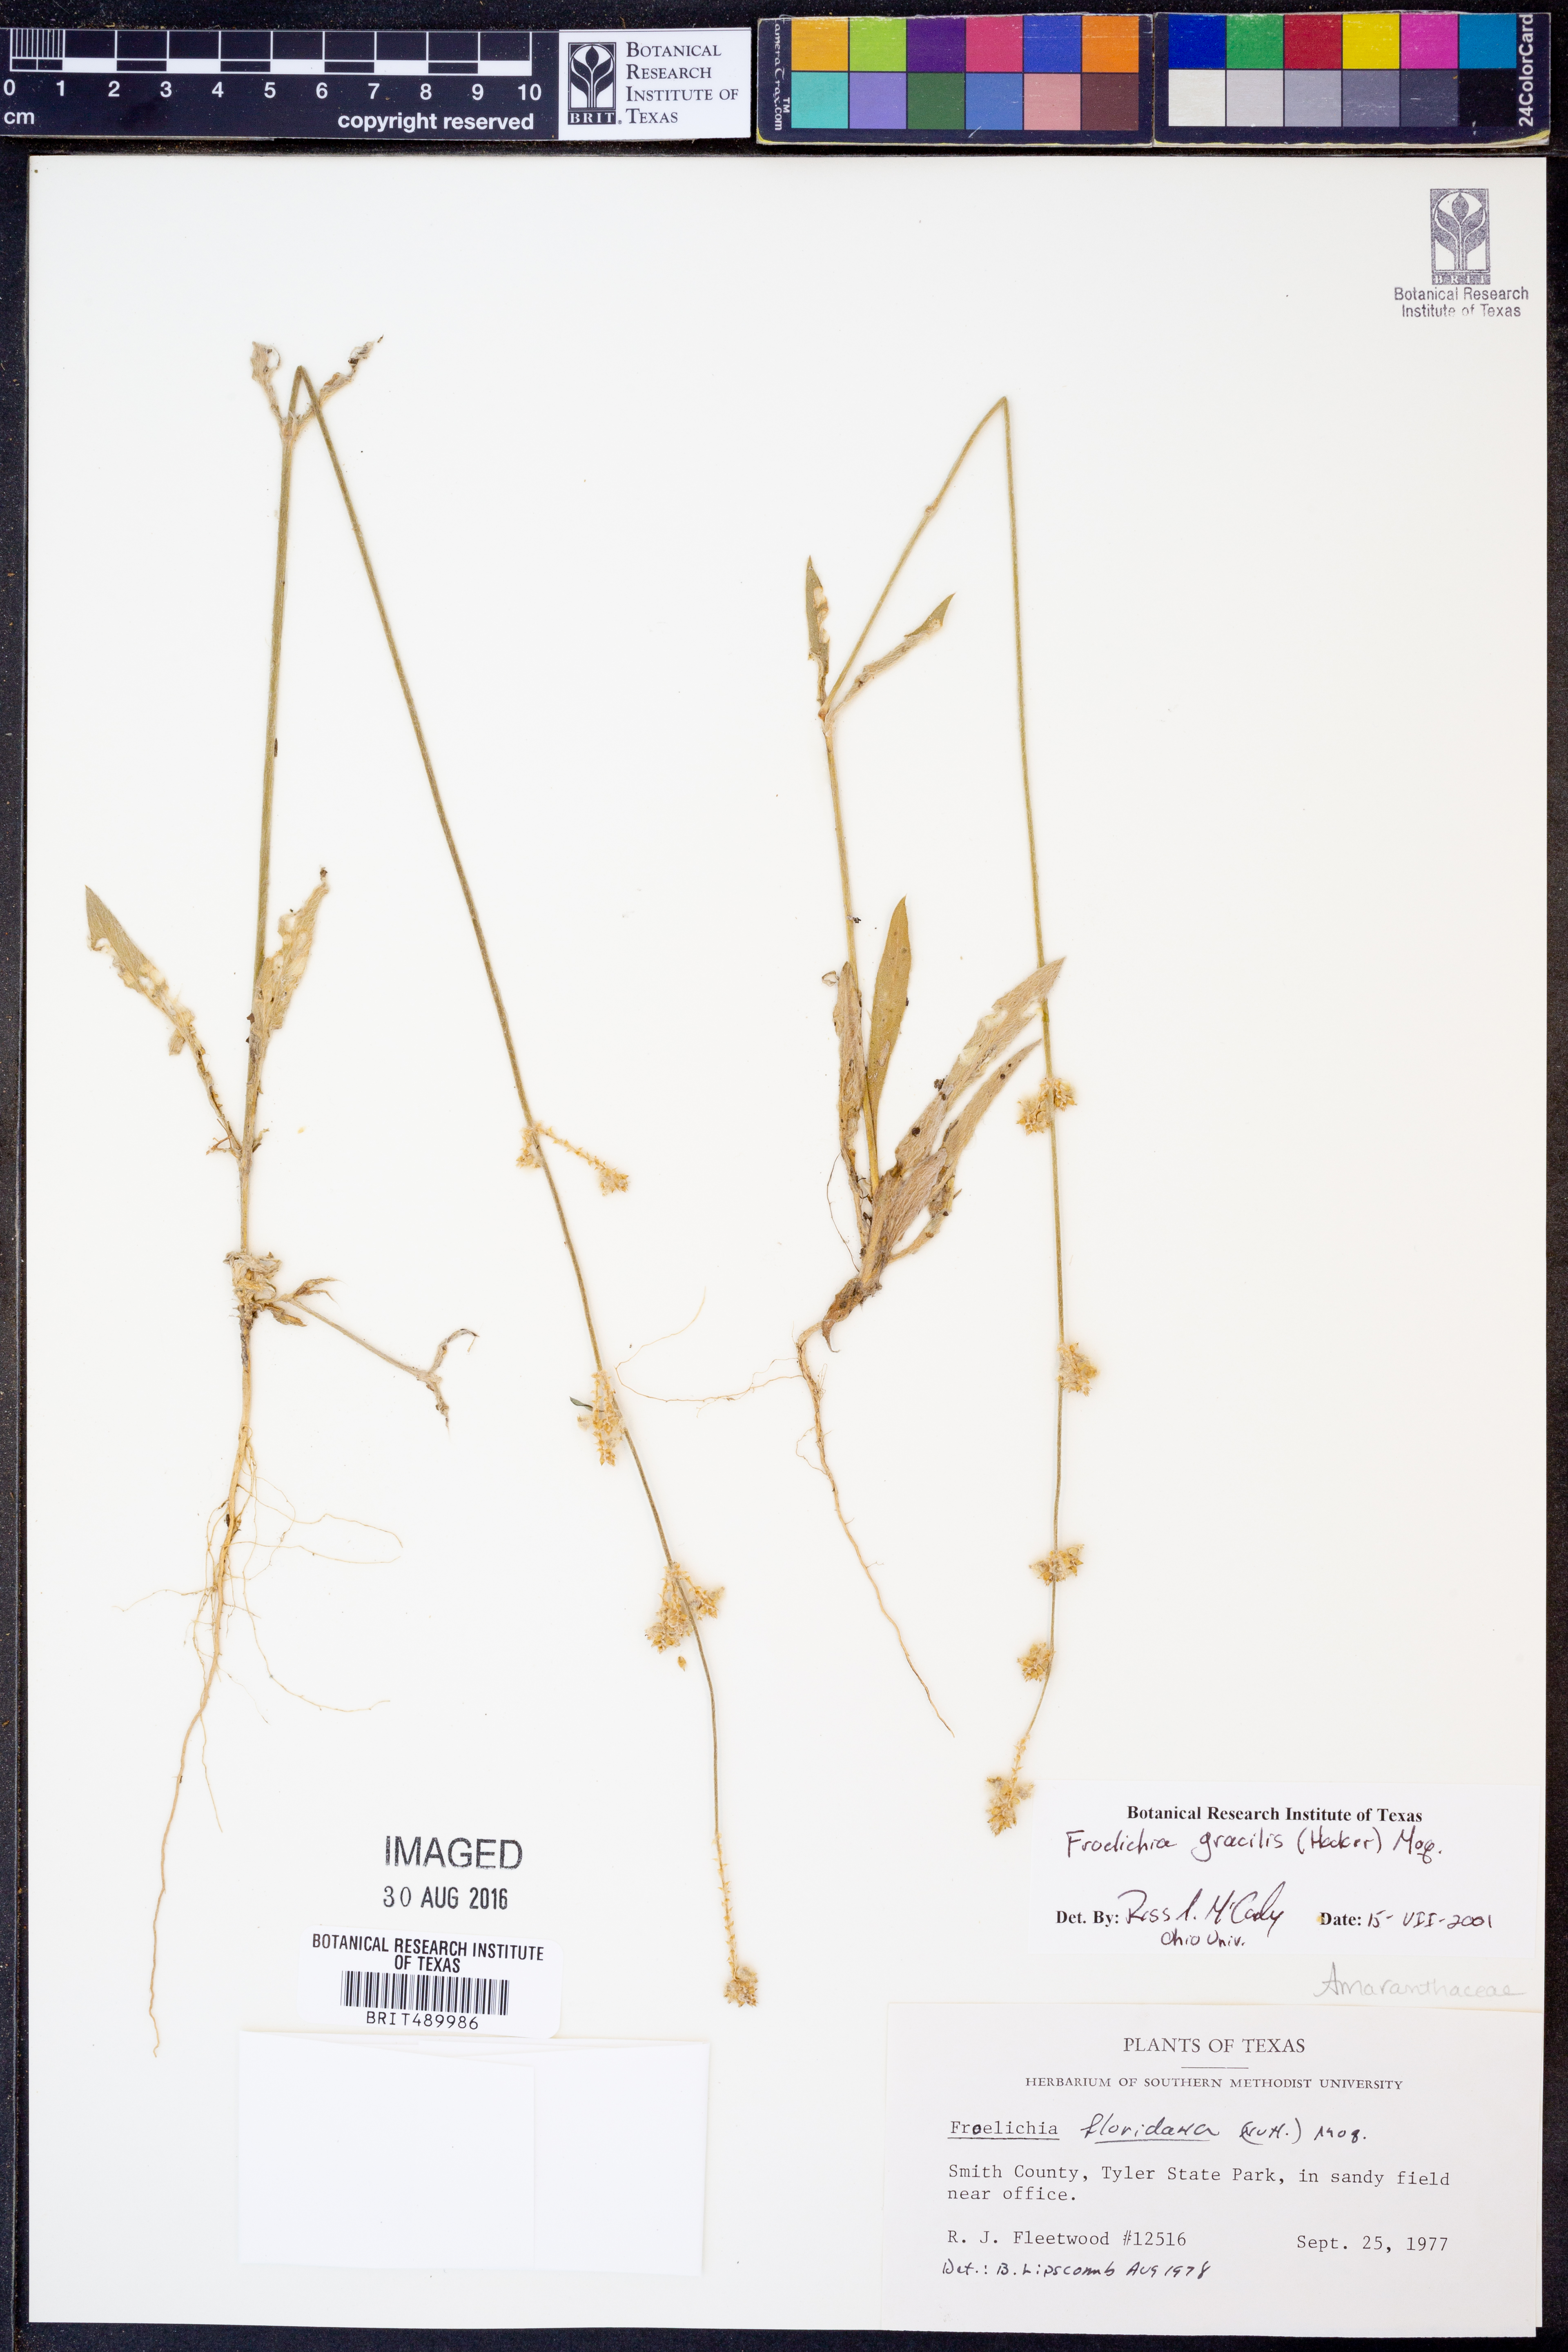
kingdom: Plantae
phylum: Tracheophyta
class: Magnoliopsida
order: Caryophyllales
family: Amaranthaceae
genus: Froelichia
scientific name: Froelichia gracilis
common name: Slender cottonweed
